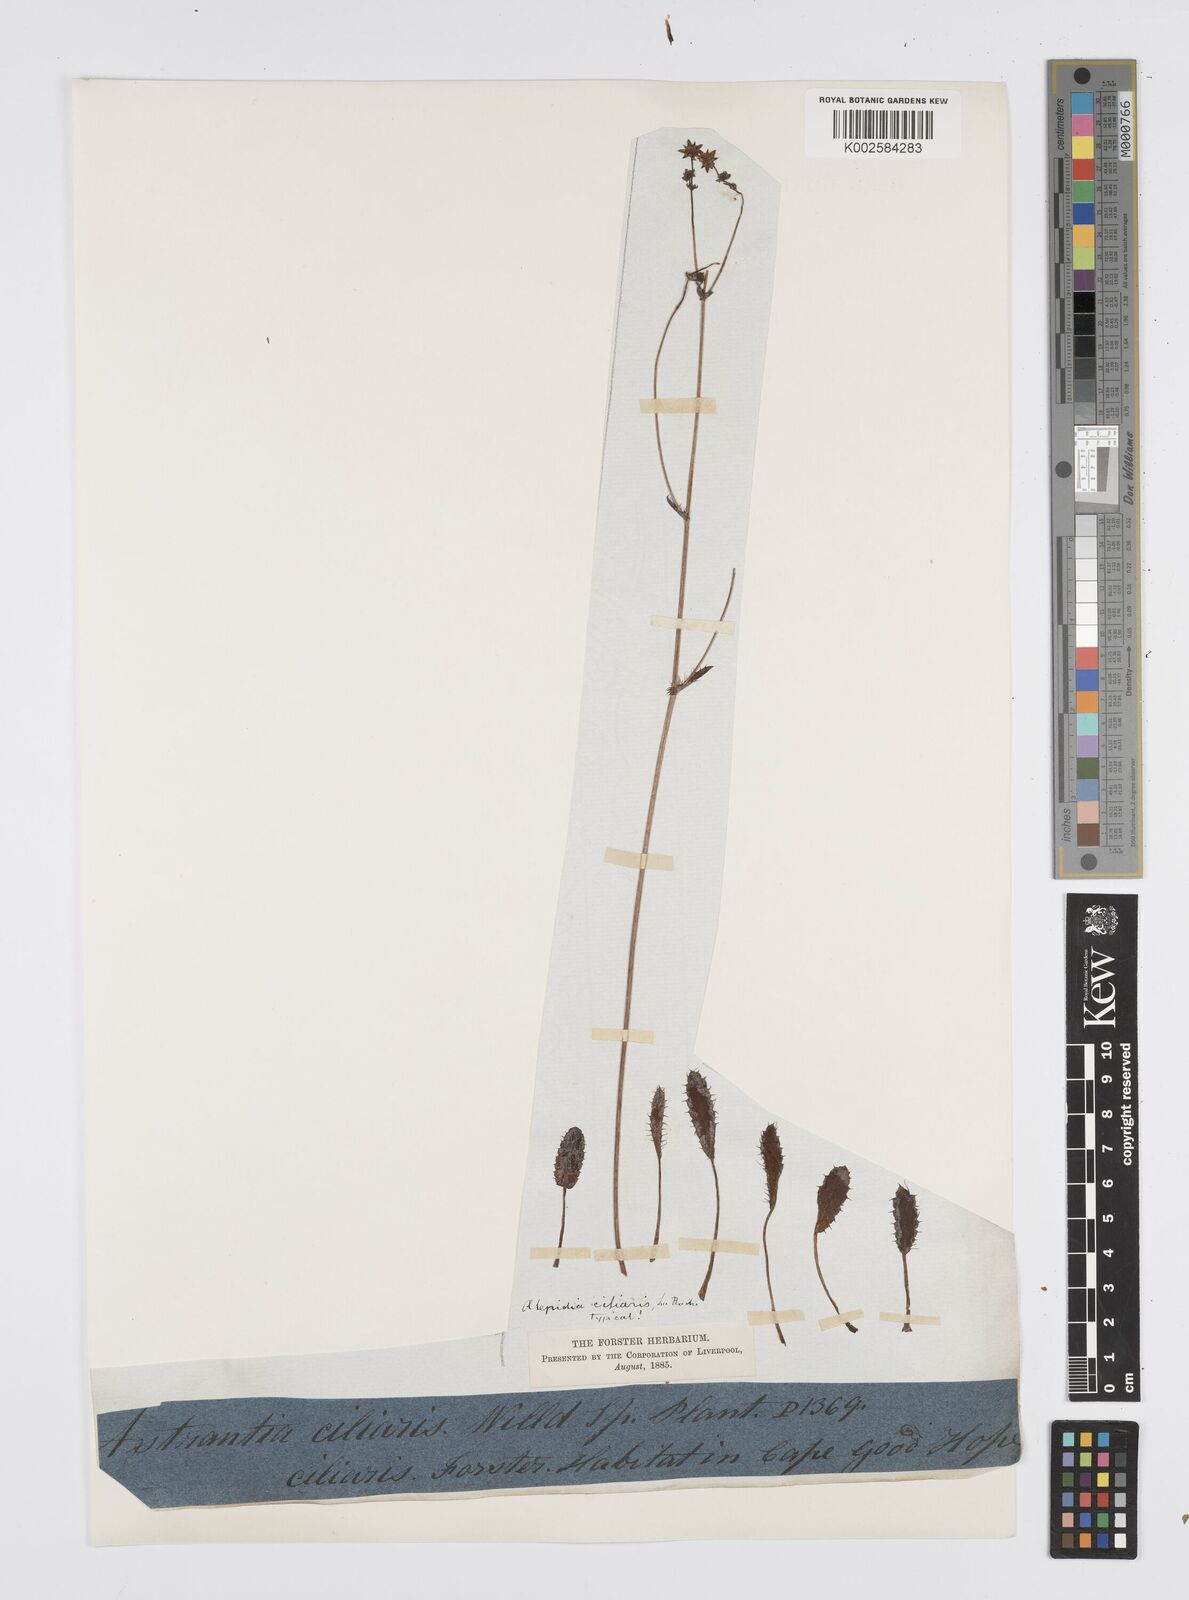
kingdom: Plantae
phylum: Tracheophyta
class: Magnoliopsida
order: Apiales
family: Apiaceae
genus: Alepidea
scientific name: Alepidea
